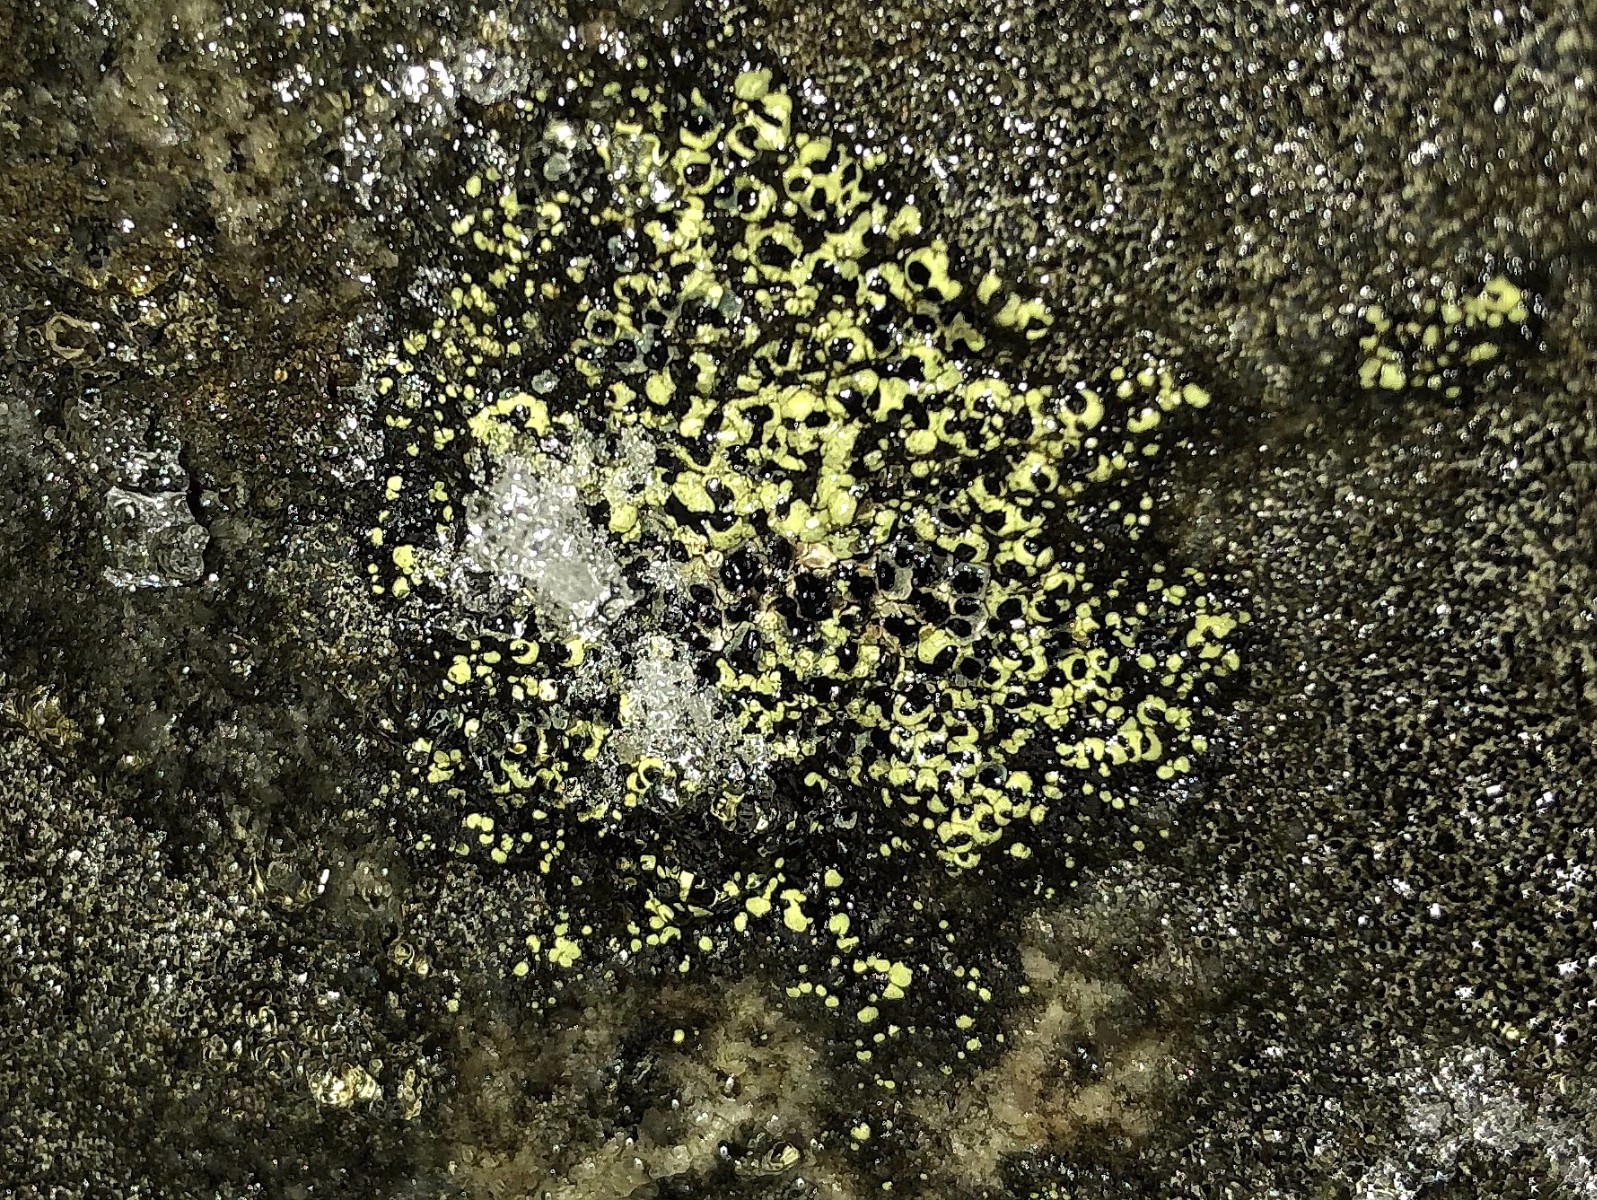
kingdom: Fungi
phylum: Ascomycota
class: Lecanoromycetes
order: Rhizocarpales
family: Rhizocarpaceae
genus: Rhizocarpon
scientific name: Rhizocarpon lecanorinum
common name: krave-landkortlav
